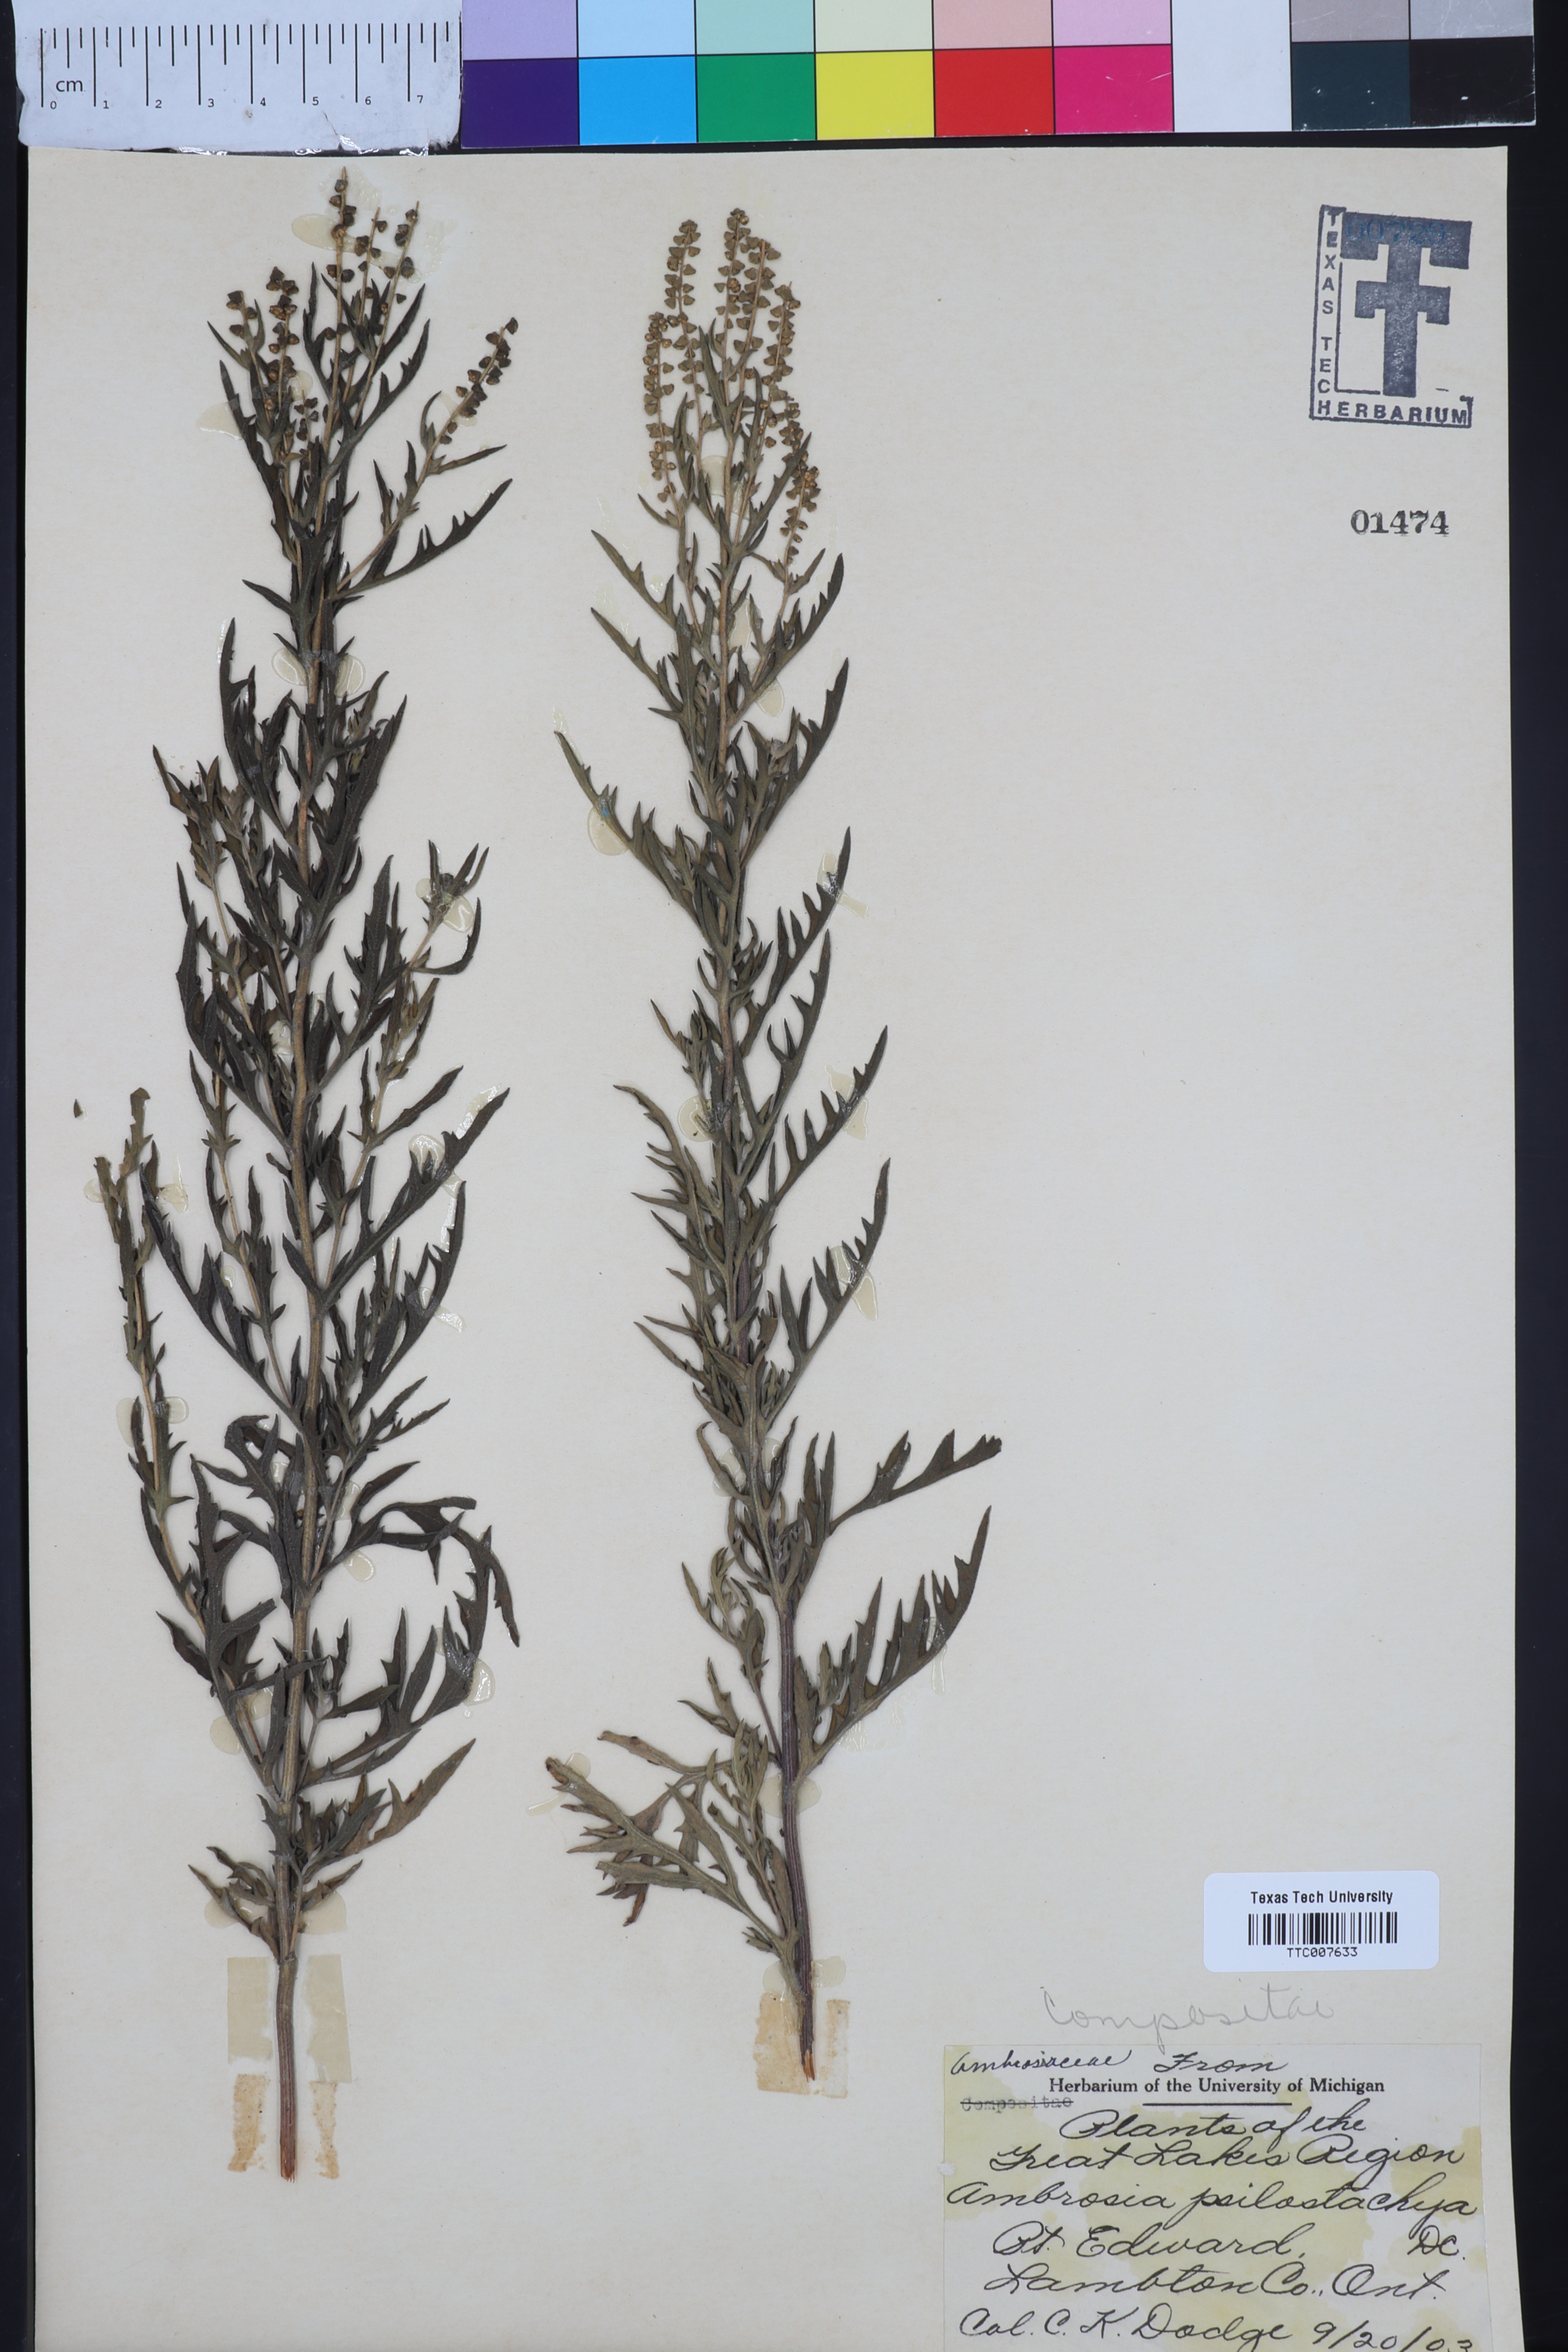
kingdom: Plantae
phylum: Tracheophyta
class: Magnoliopsida
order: Asterales
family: Asteraceae
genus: Ambrosia
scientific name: Ambrosia psilostachya
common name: Perennial ragweed
